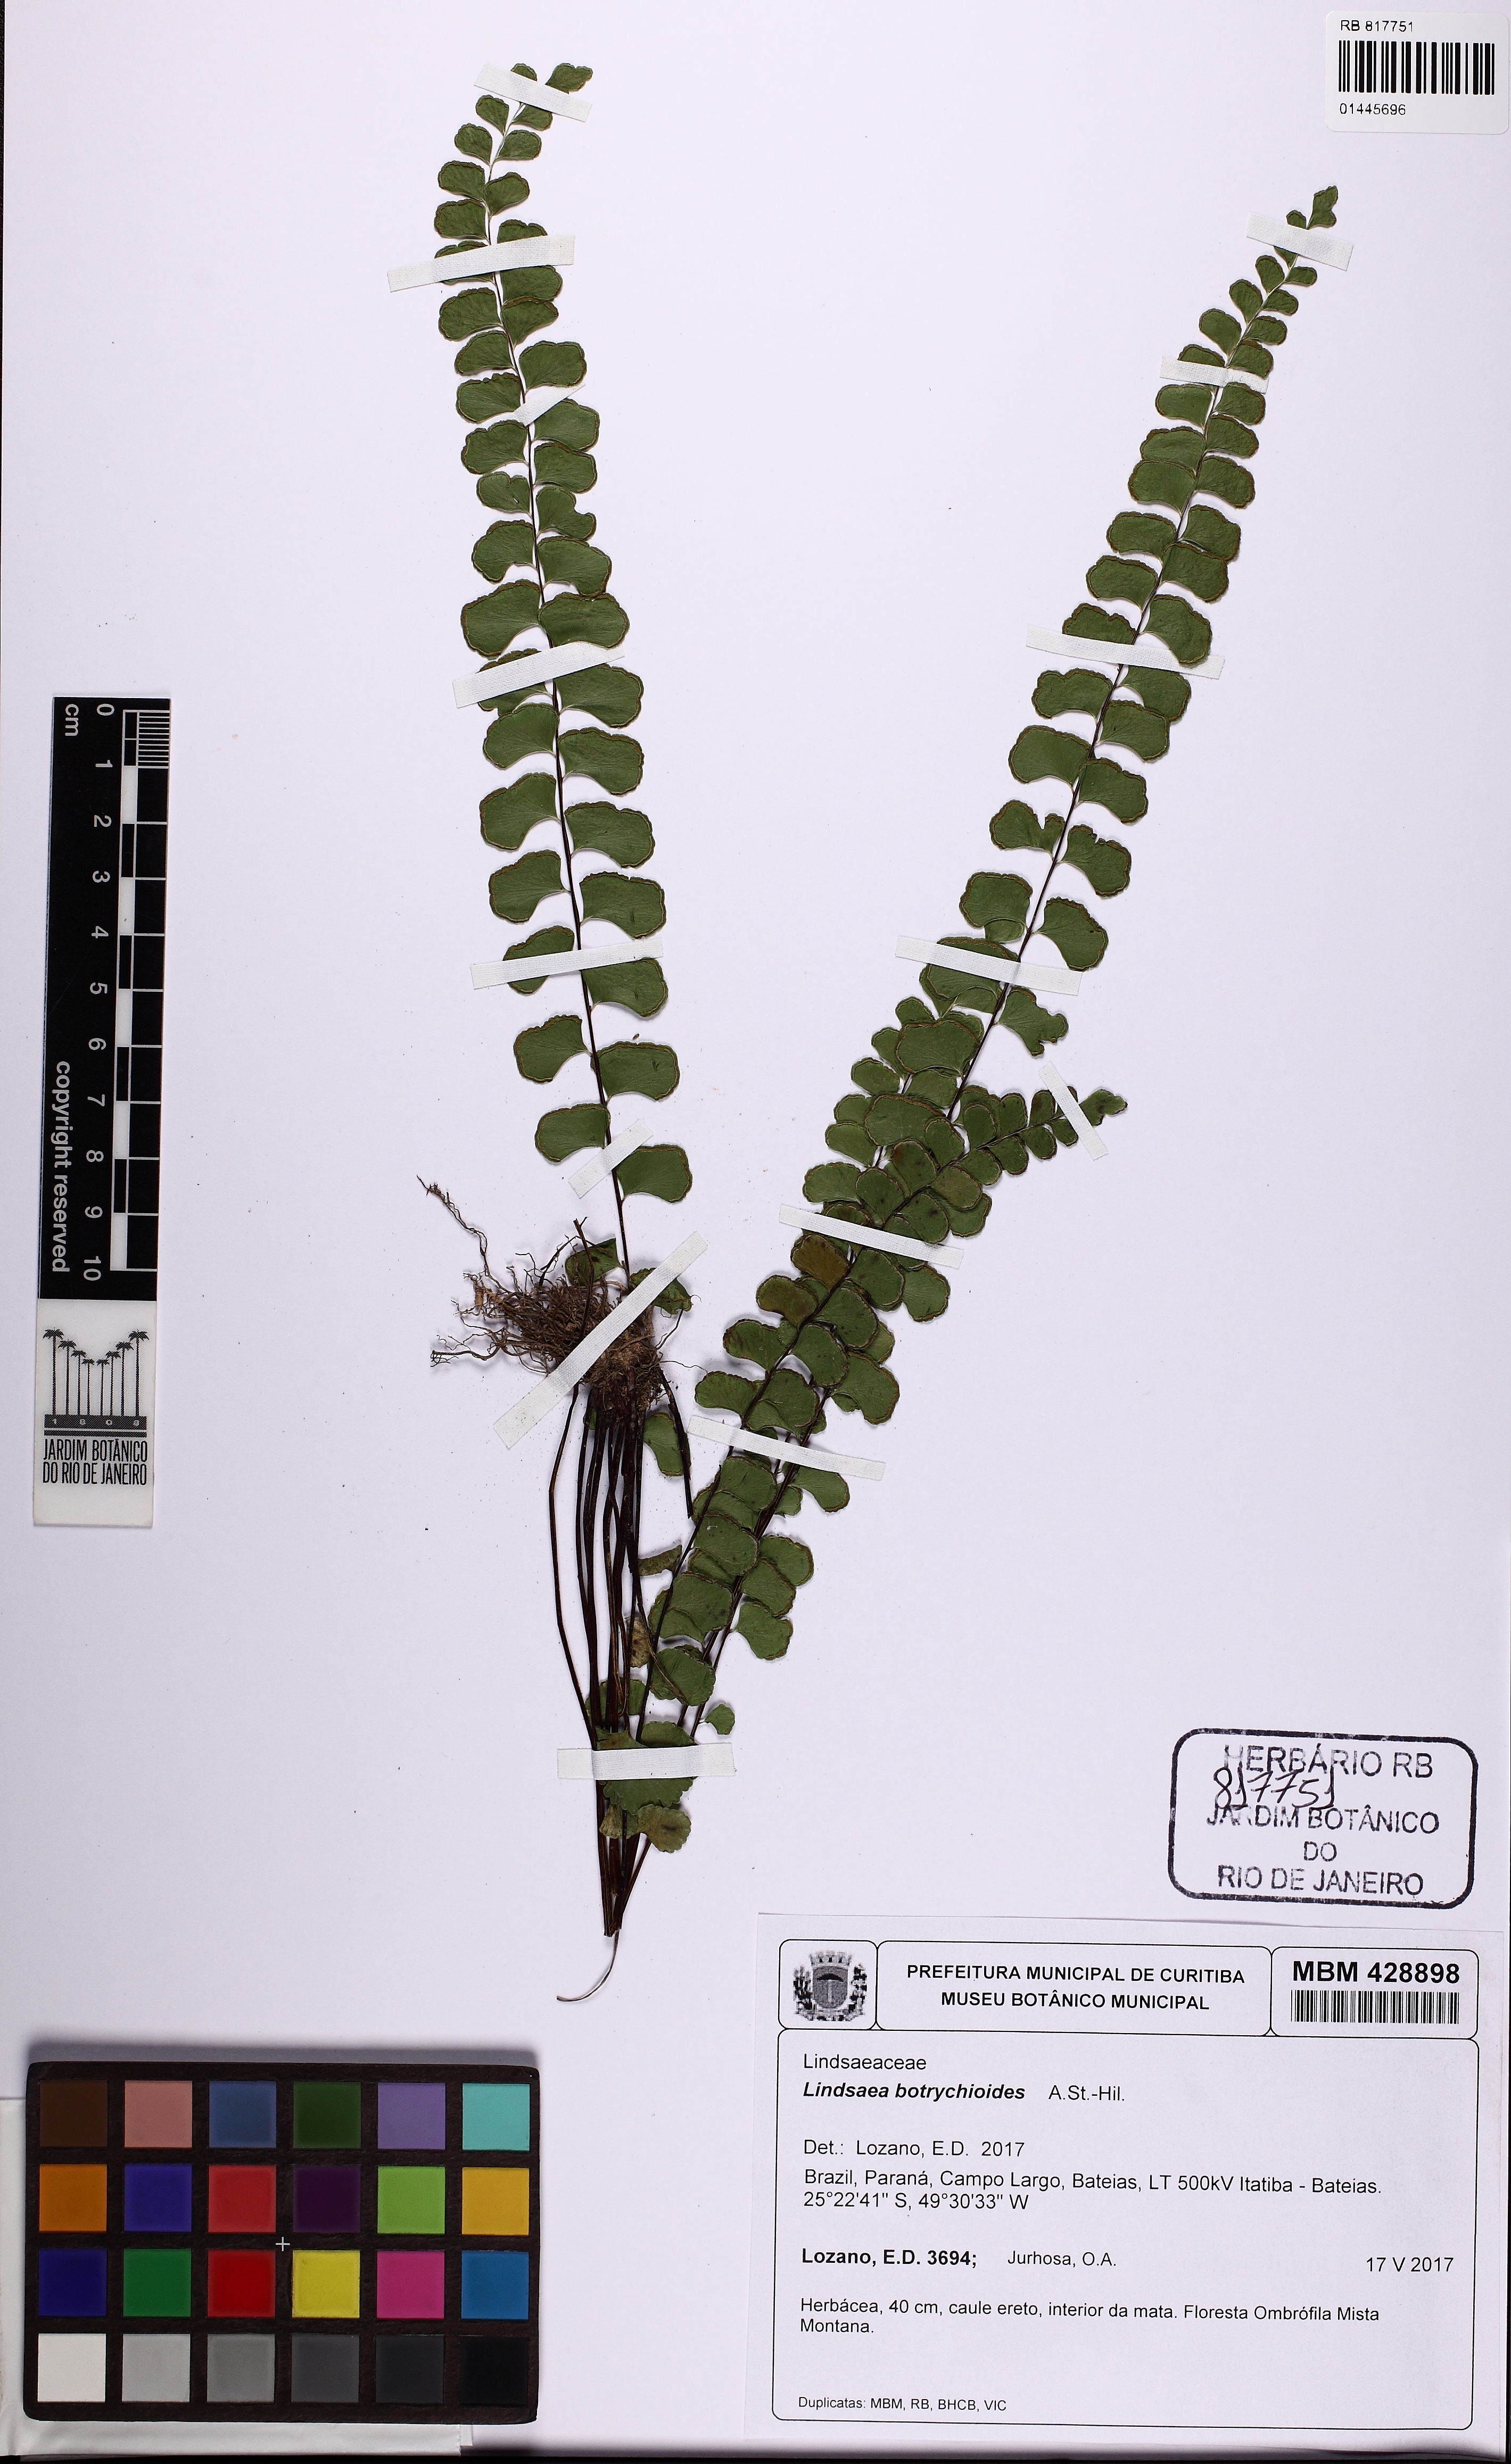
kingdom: Plantae
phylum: Tracheophyta
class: Polypodiopsida
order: Polypodiales
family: Lindsaeaceae
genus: Lindsaea
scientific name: Lindsaea botrychioides
